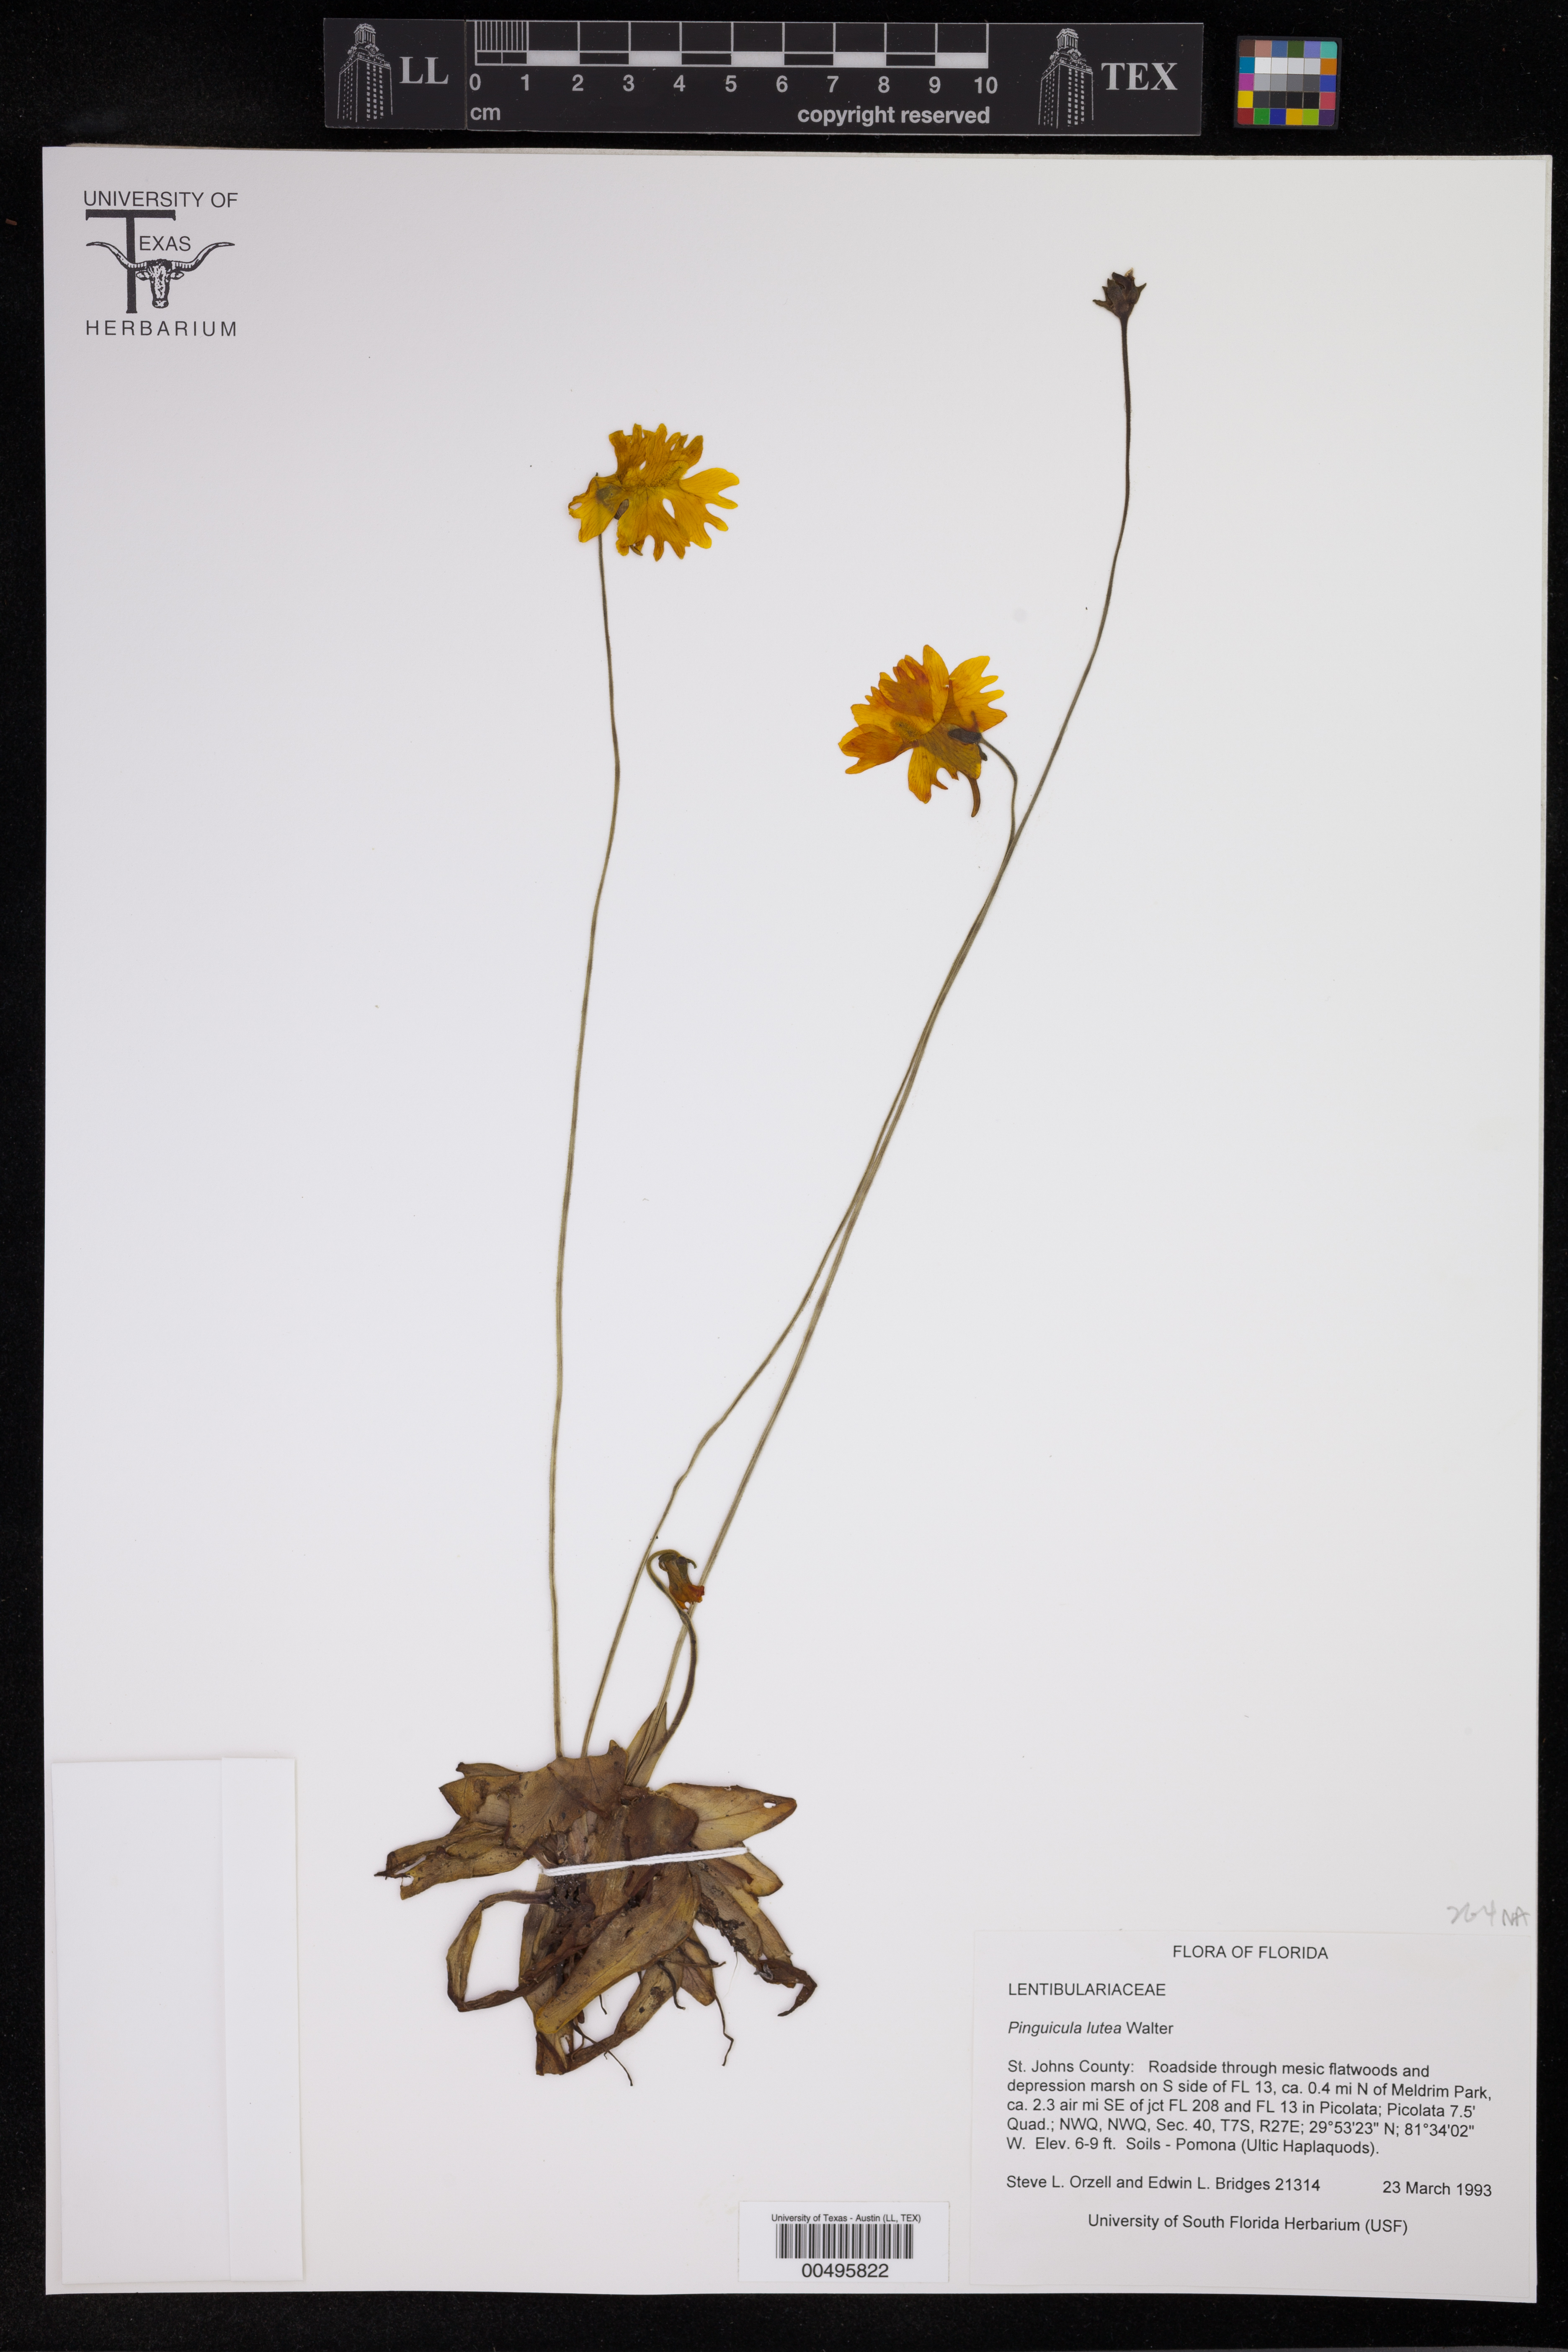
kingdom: Plantae
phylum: Tracheophyta
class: Magnoliopsida
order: Lamiales
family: Lentibulariaceae
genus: Pinguicula
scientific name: Pinguicula lutea
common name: Yellow butterwort
